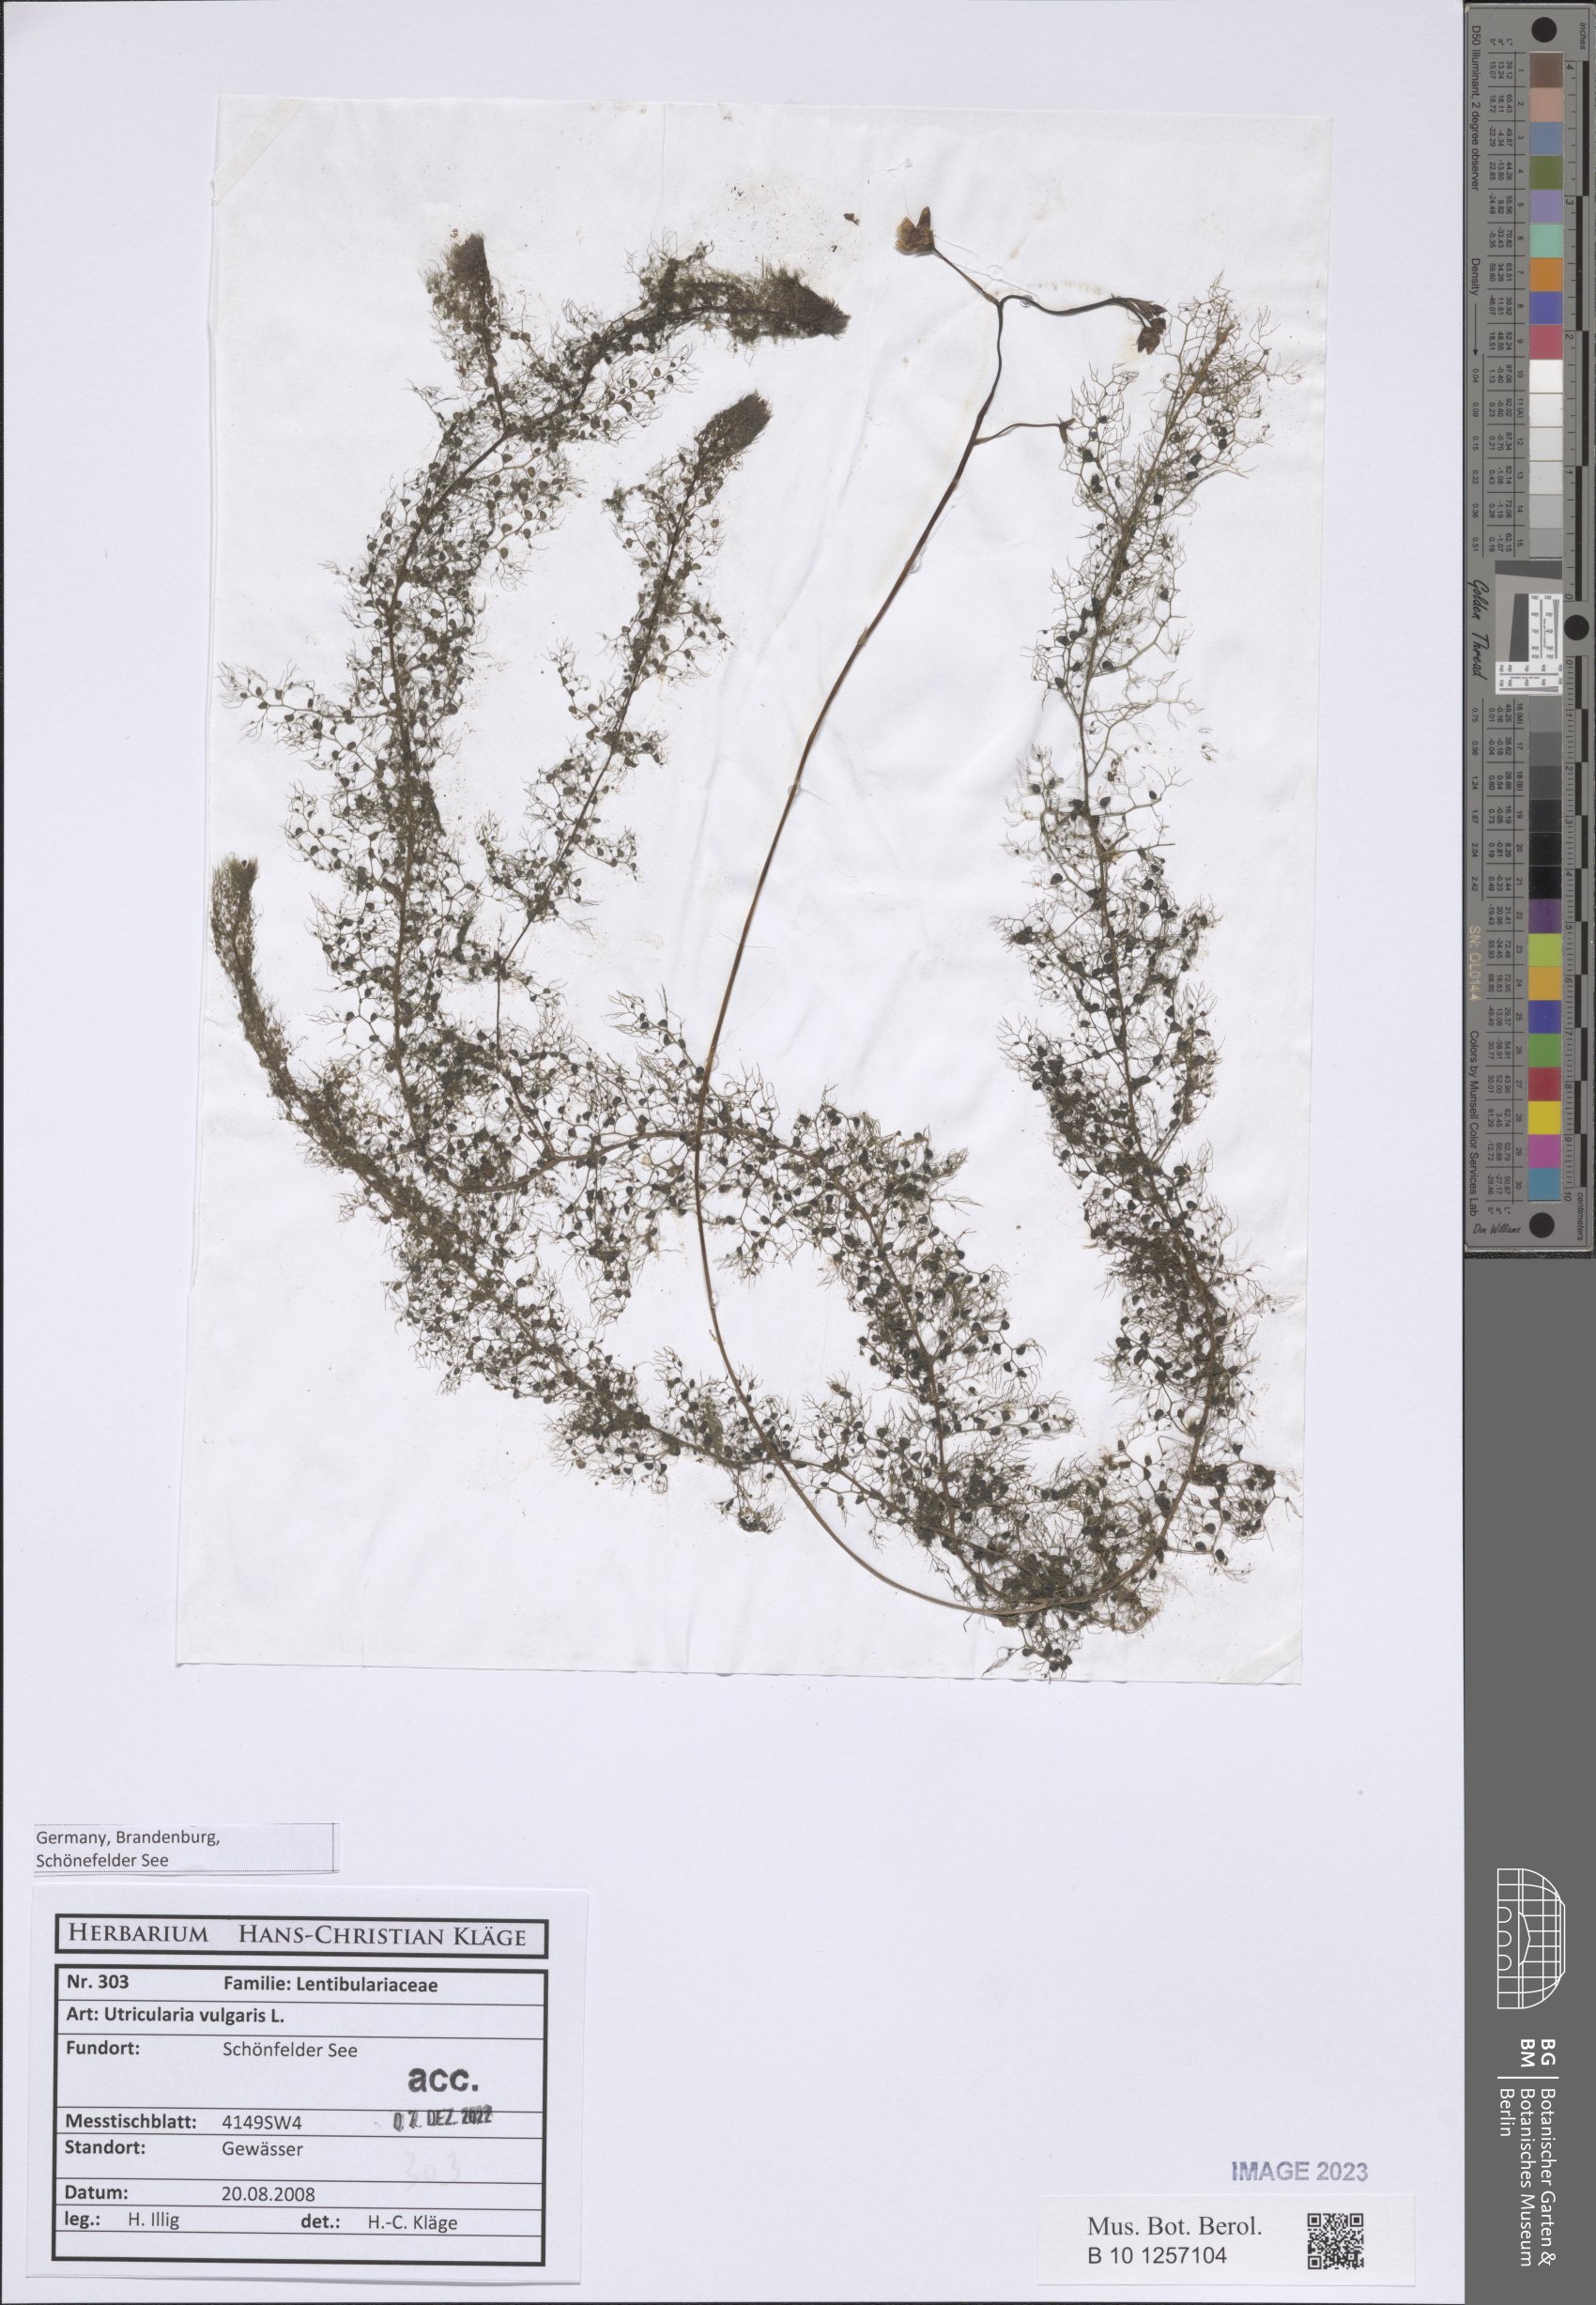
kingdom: Plantae
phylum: Tracheophyta
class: Magnoliopsida
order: Lamiales
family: Lentibulariaceae
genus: Utricularia
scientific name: Utricularia vulgaris
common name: Greater bladderwort
